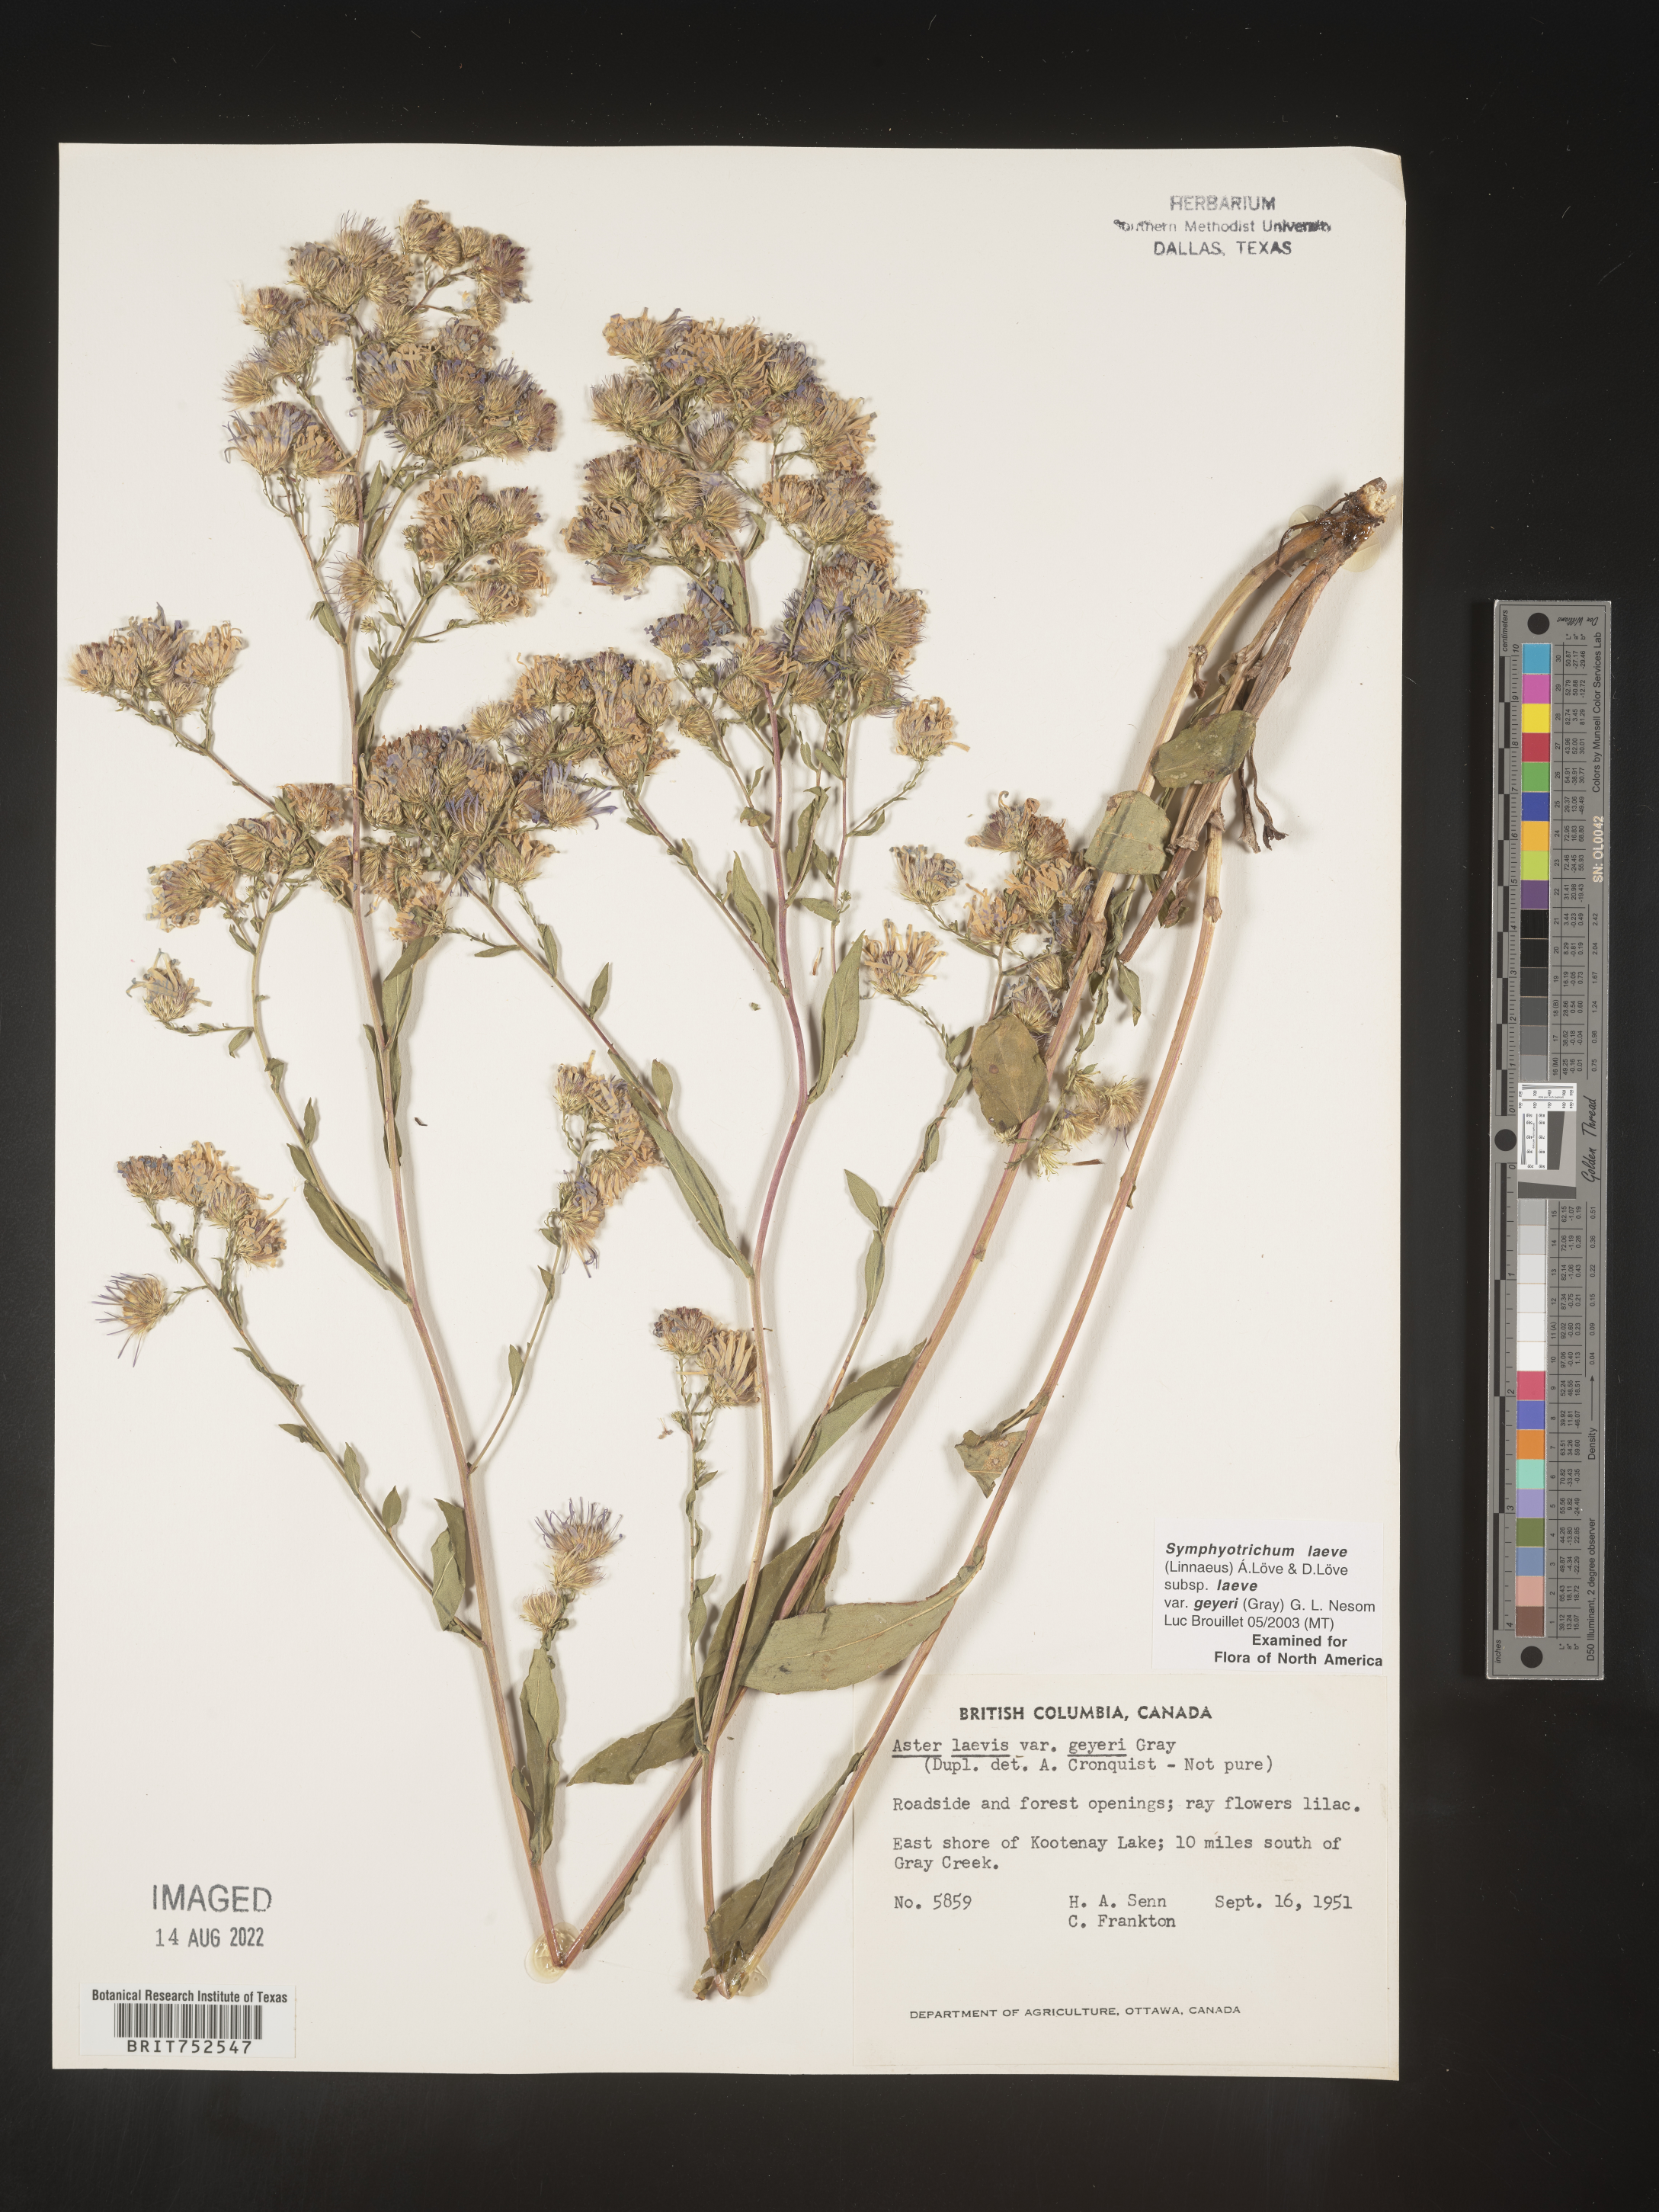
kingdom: Plantae
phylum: Tracheophyta
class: Magnoliopsida
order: Asterales
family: Asteraceae
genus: Symphyotrichum
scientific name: Symphyotrichum laeve
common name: Glaucous aster
